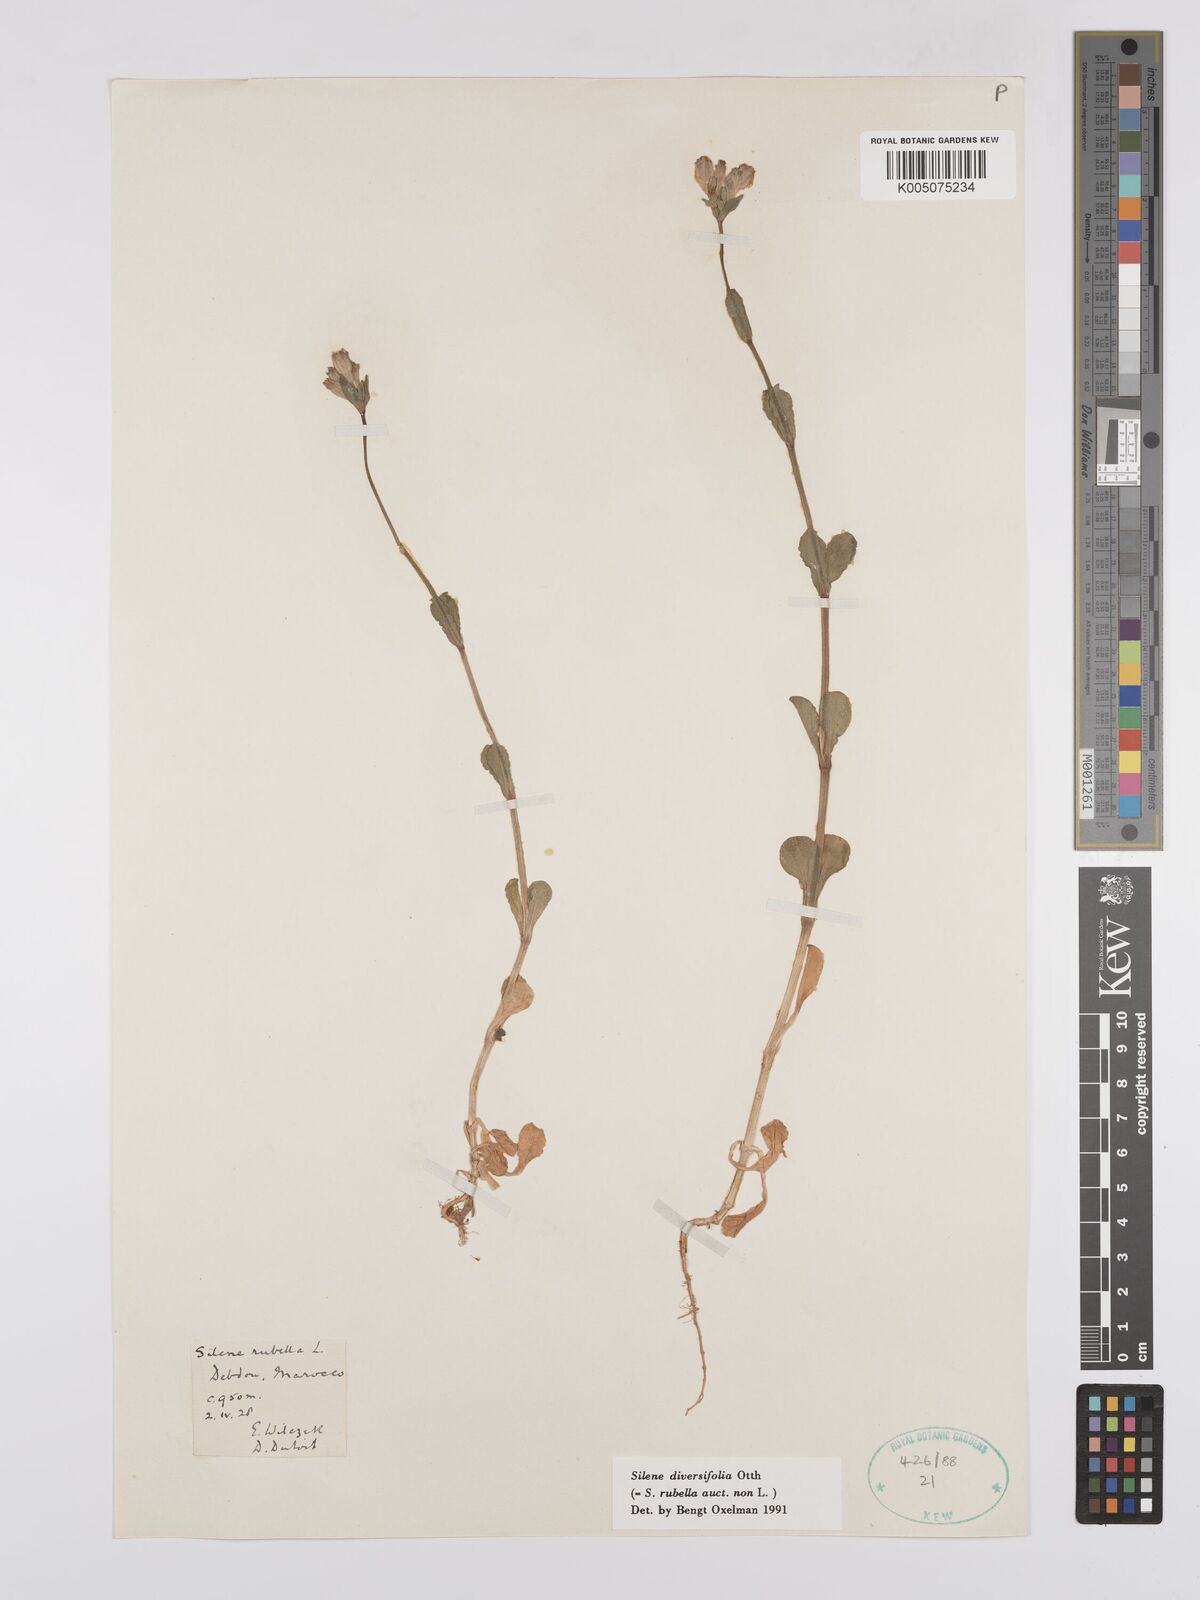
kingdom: Plantae
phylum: Tracheophyta
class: Magnoliopsida
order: Caryophyllales
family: Caryophyllaceae
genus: Silene
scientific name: Silene rubella
